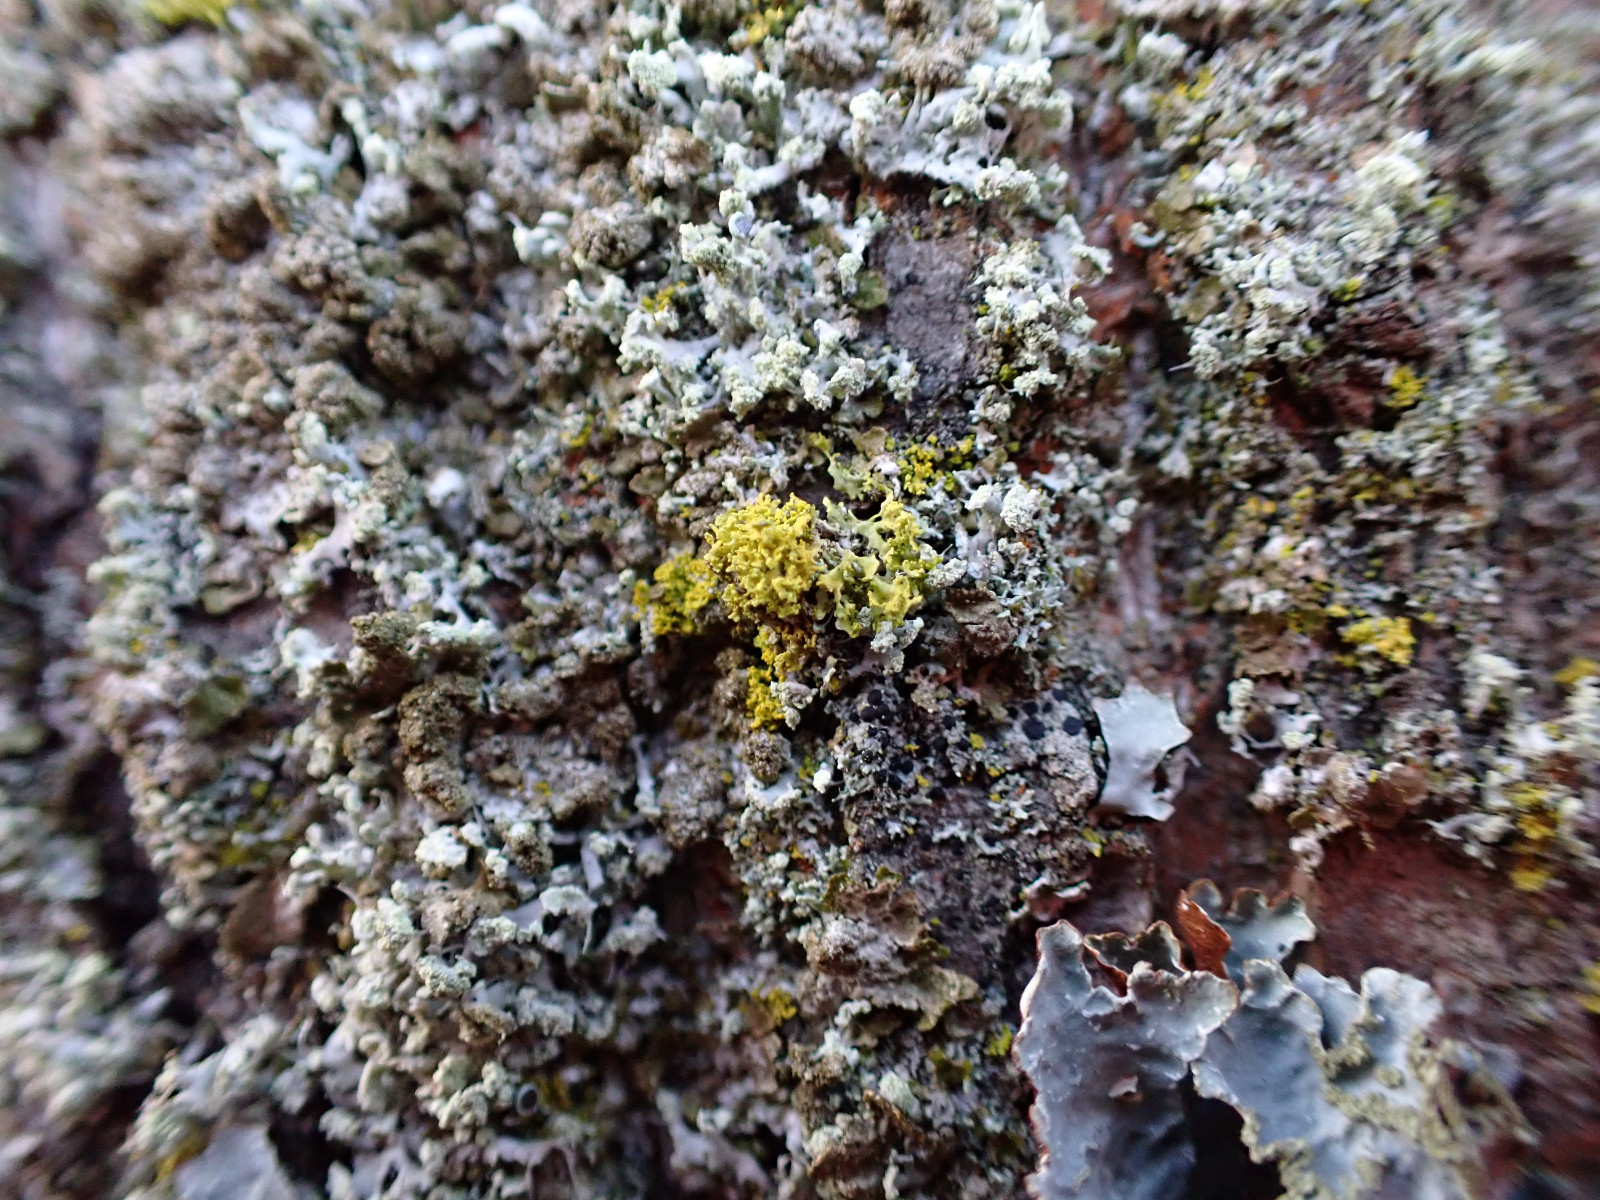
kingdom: Fungi
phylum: Ascomycota
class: Lecanoromycetes
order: Teloschistales
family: Teloschistaceae
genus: Polycauliona
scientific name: Polycauliona candelaria
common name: tue-orangelav
